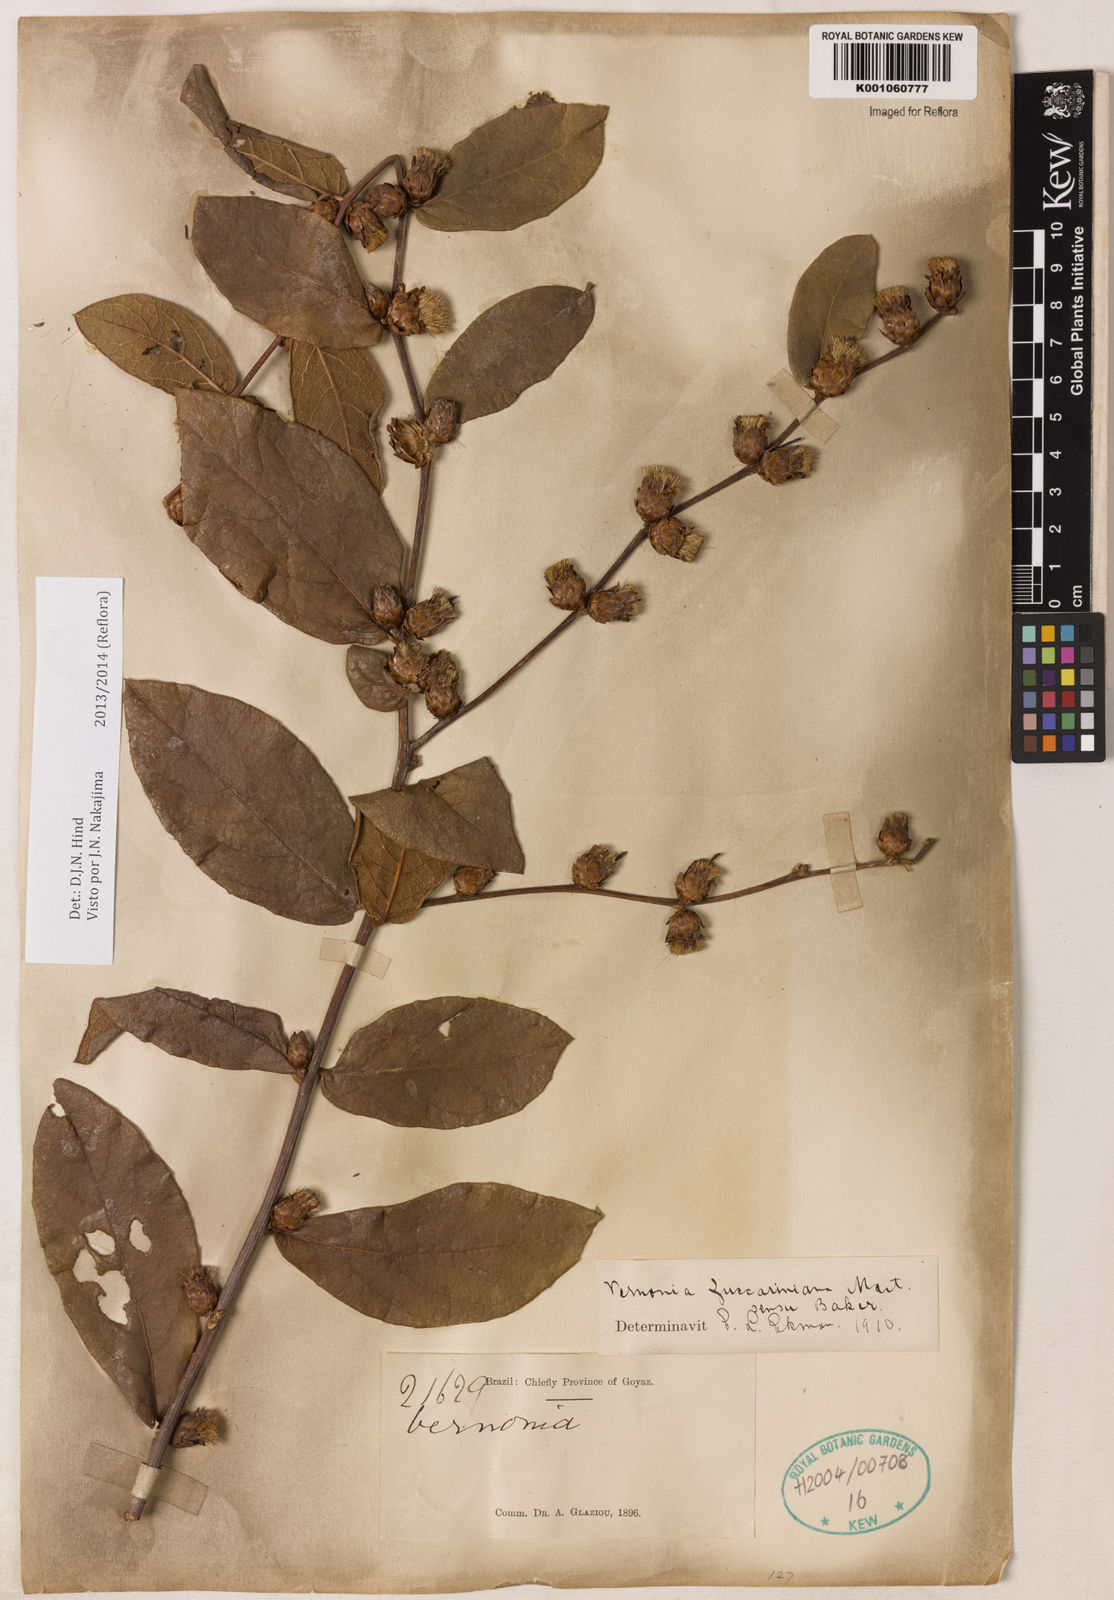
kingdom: Plantae
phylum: Tracheophyta
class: Magnoliopsida
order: Asterales
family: Asteraceae
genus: Lessingianthus
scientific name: Lessingianthus zuccarinianus
